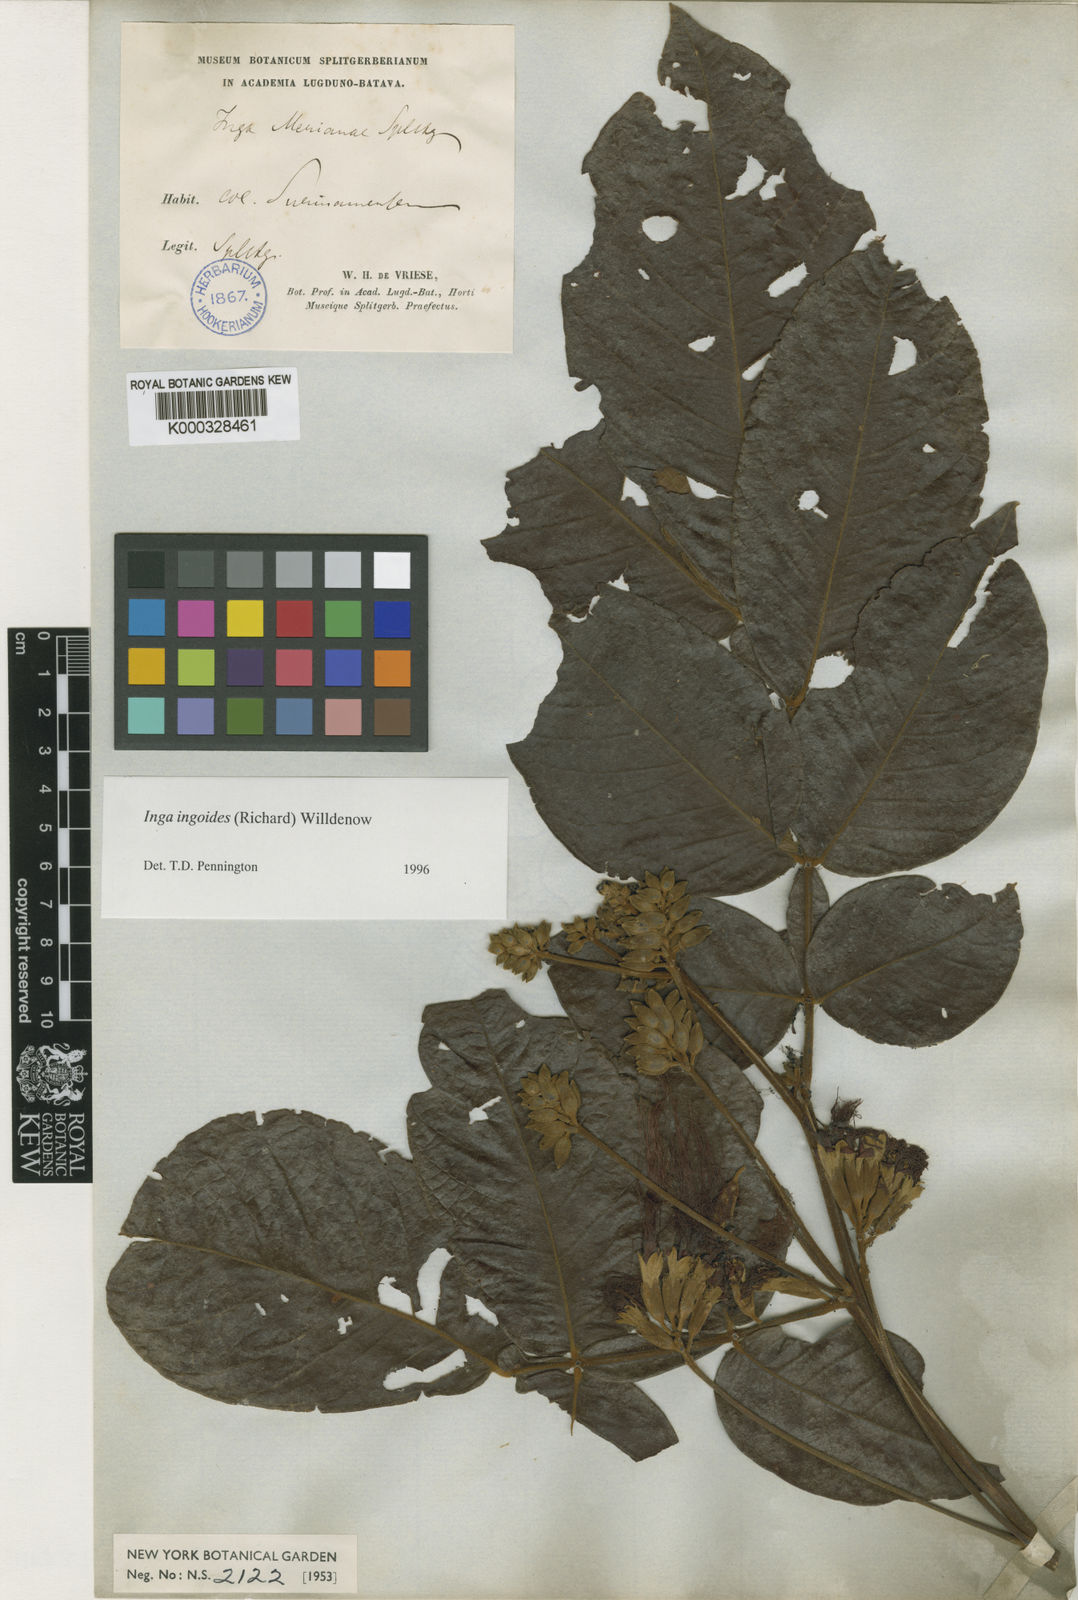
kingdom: Plantae
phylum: Tracheophyta
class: Magnoliopsida
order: Fabales
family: Fabaceae
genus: Inga
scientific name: Inga ingoides
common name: Spanish ash
